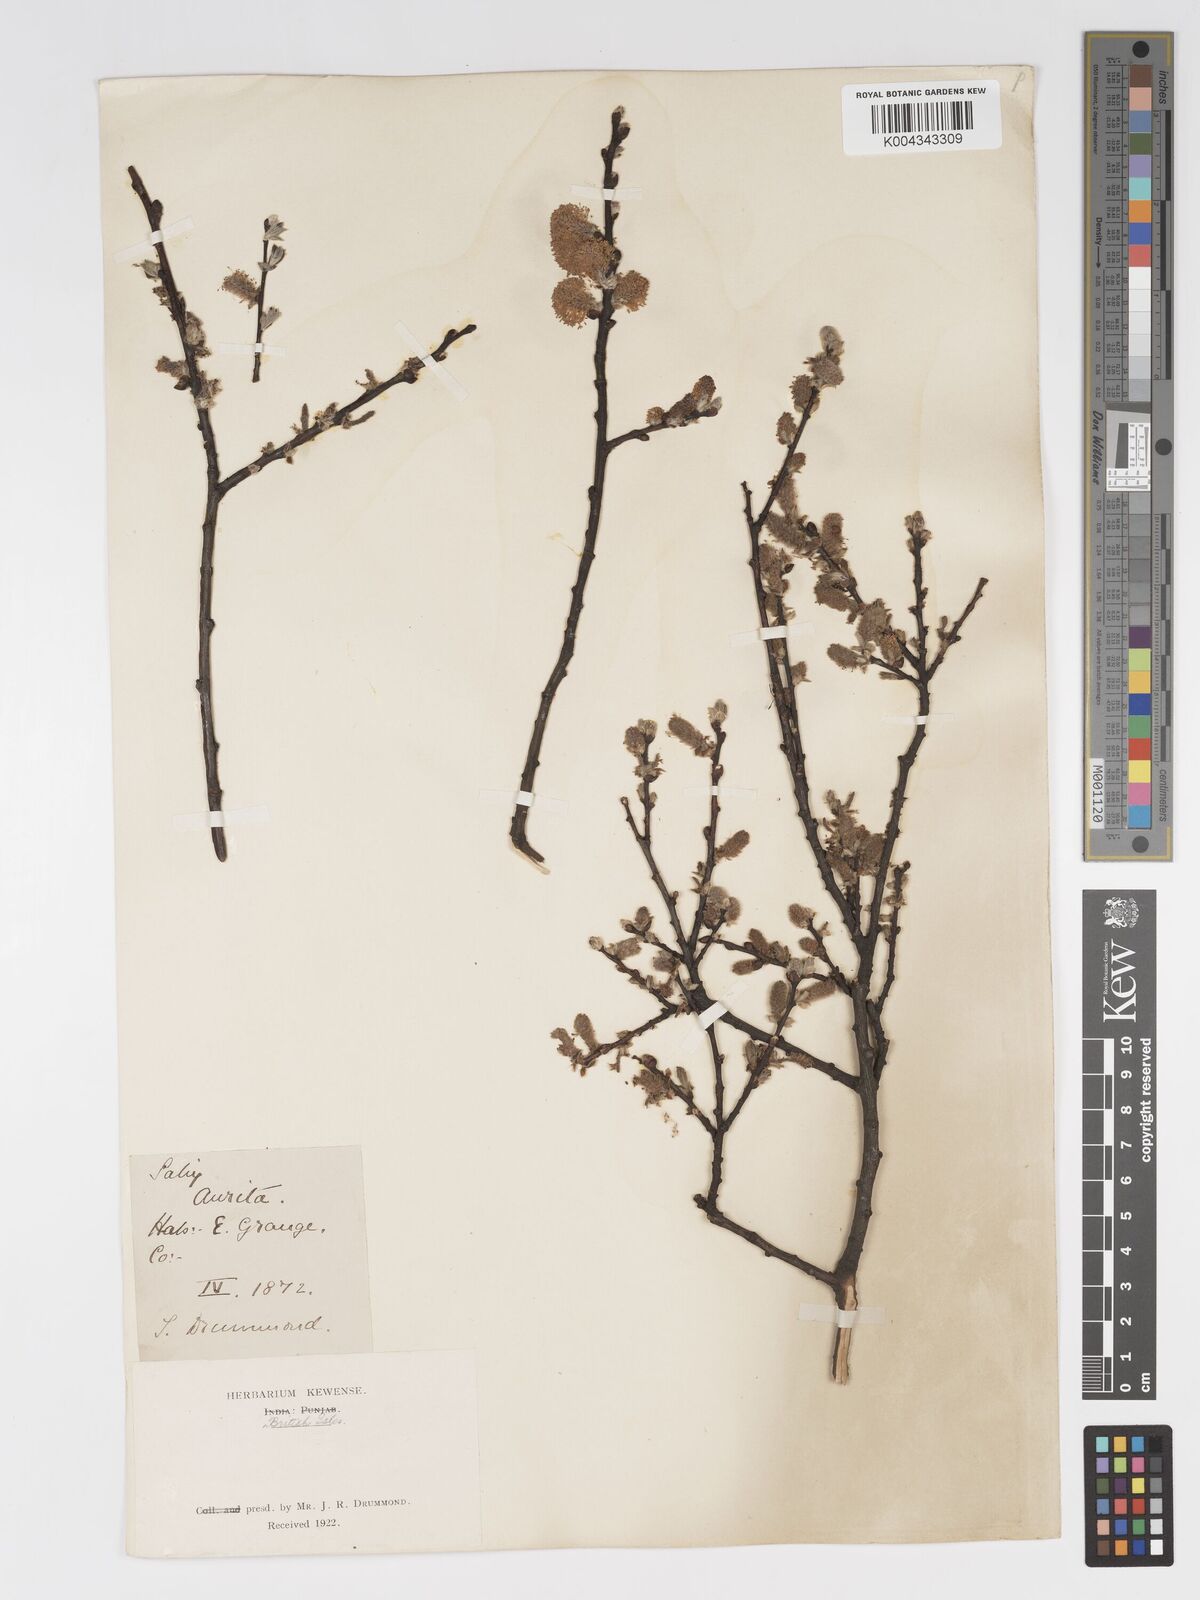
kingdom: Plantae
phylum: Tracheophyta
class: Magnoliopsida
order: Malpighiales
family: Salicaceae
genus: Salix
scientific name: Salix aurita
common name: Eared willow
